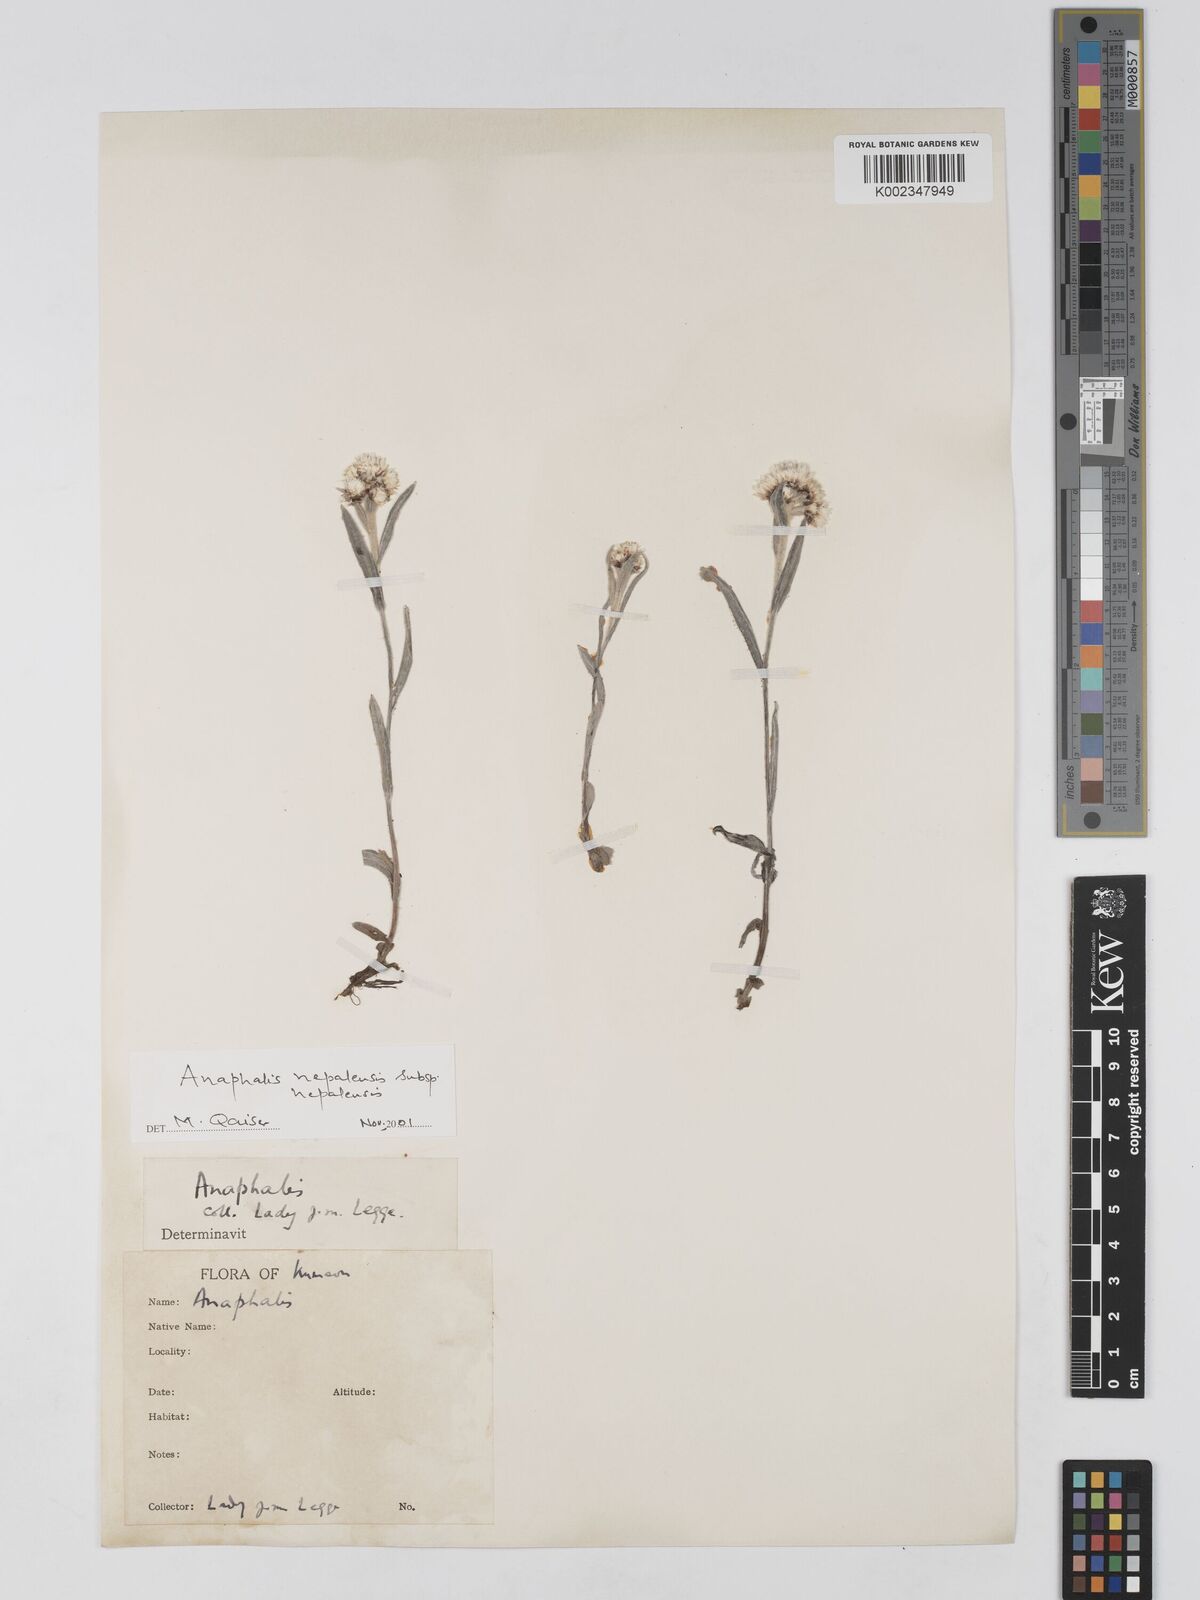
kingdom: Plantae
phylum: Tracheophyta
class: Magnoliopsida
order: Asterales
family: Asteraceae
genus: Anaphalis
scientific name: Anaphalis
